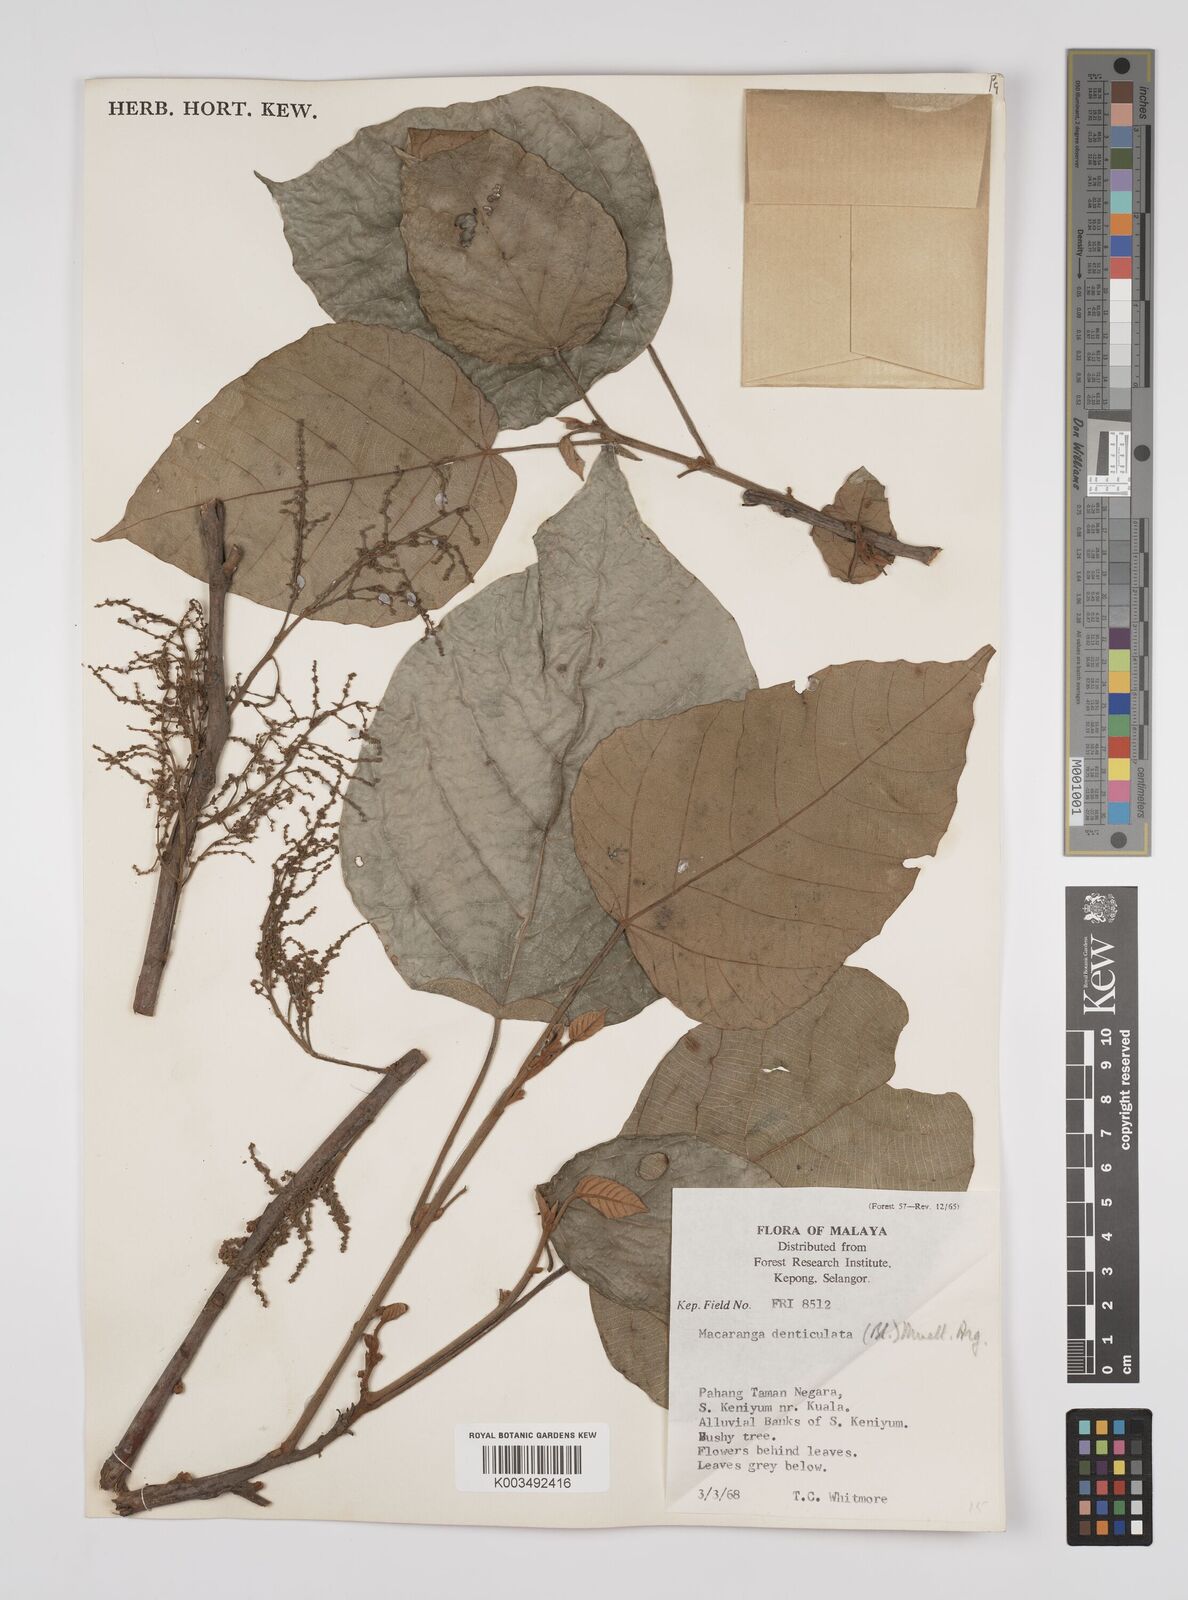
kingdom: Plantae
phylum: Tracheophyta
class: Magnoliopsida
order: Malpighiales
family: Euphorbiaceae
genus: Macaranga
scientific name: Macaranga denticulata
